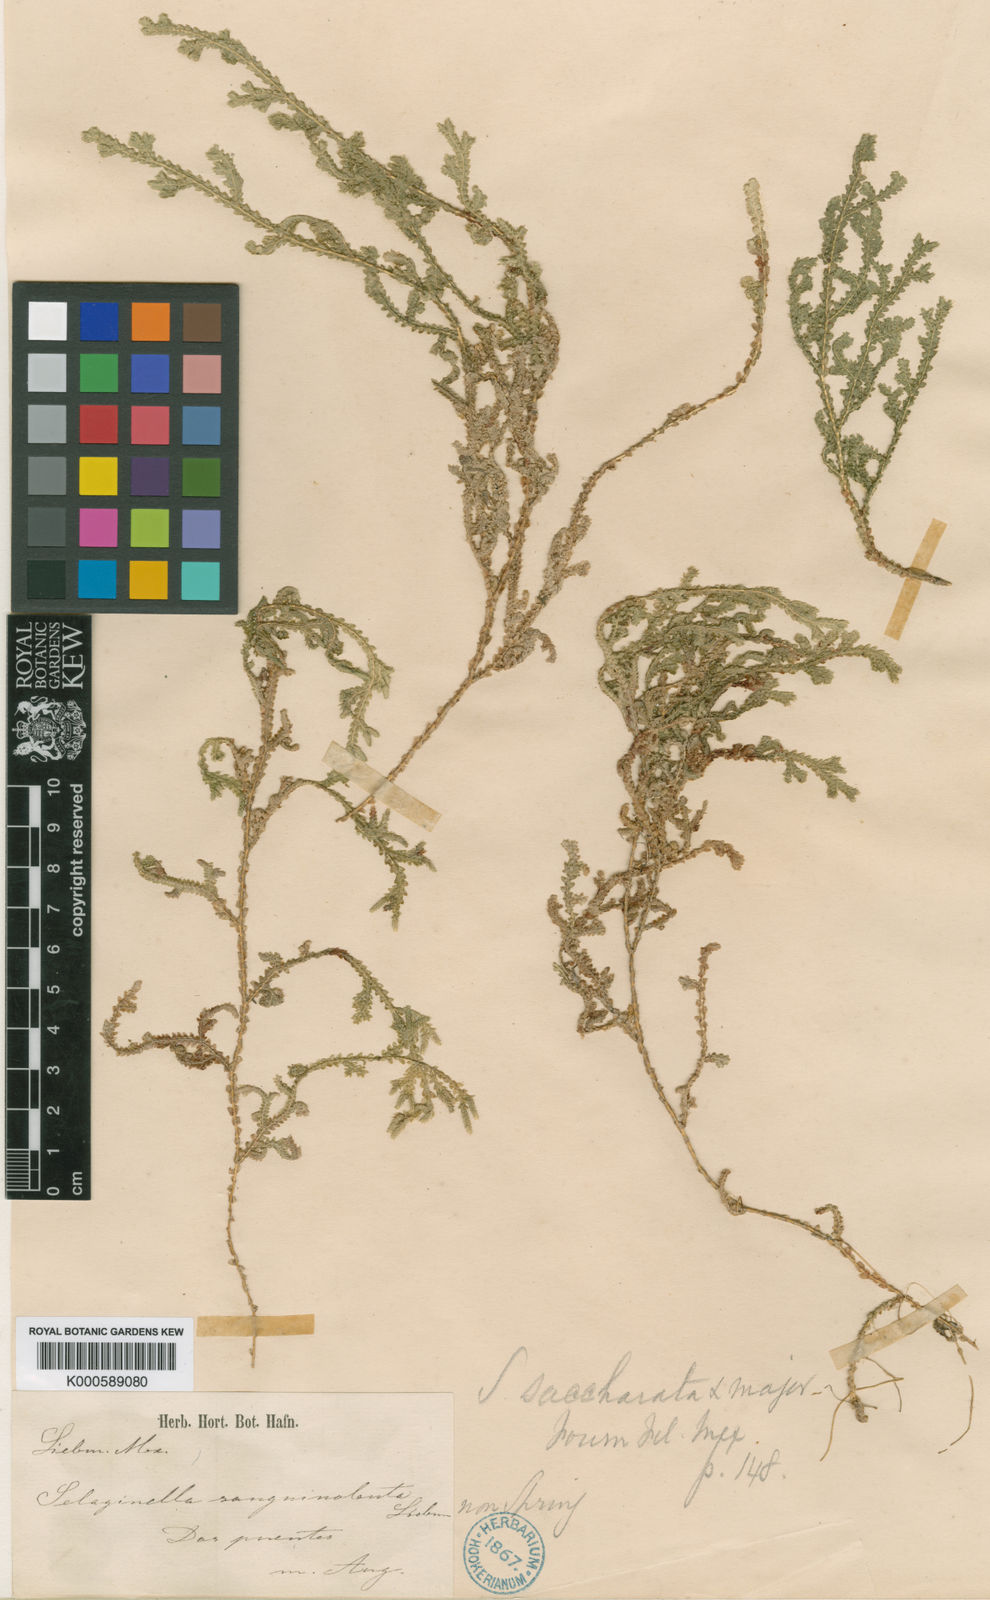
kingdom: Plantae
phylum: Tracheophyta
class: Lycopodiopsida
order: Selaginellales
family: Selaginellaceae
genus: Selaginella
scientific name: Selaginella
